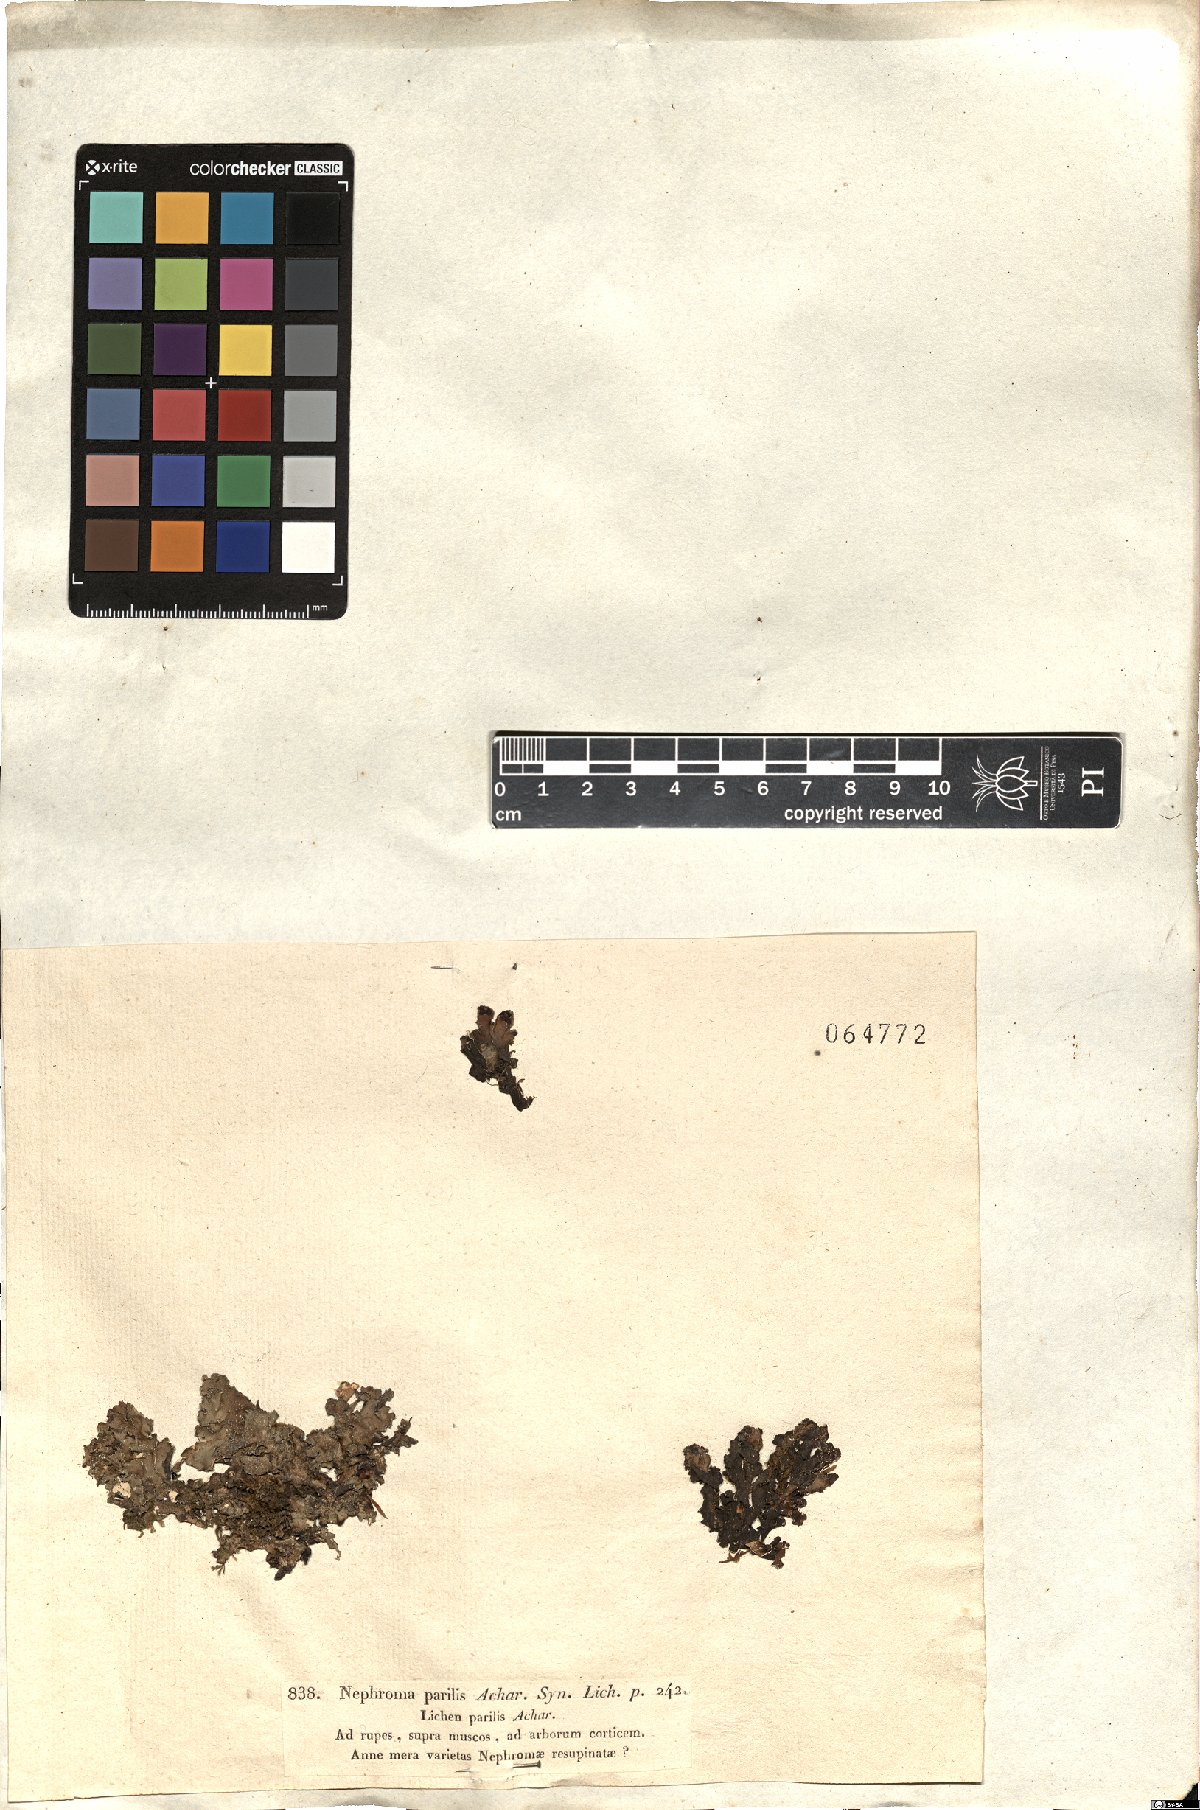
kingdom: Fungi
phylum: Ascomycota
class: Lecanoromycetes
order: Peltigerales
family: Nephromataceae
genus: Nephroma
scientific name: Nephroma parile
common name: Powdery kidney lichen
